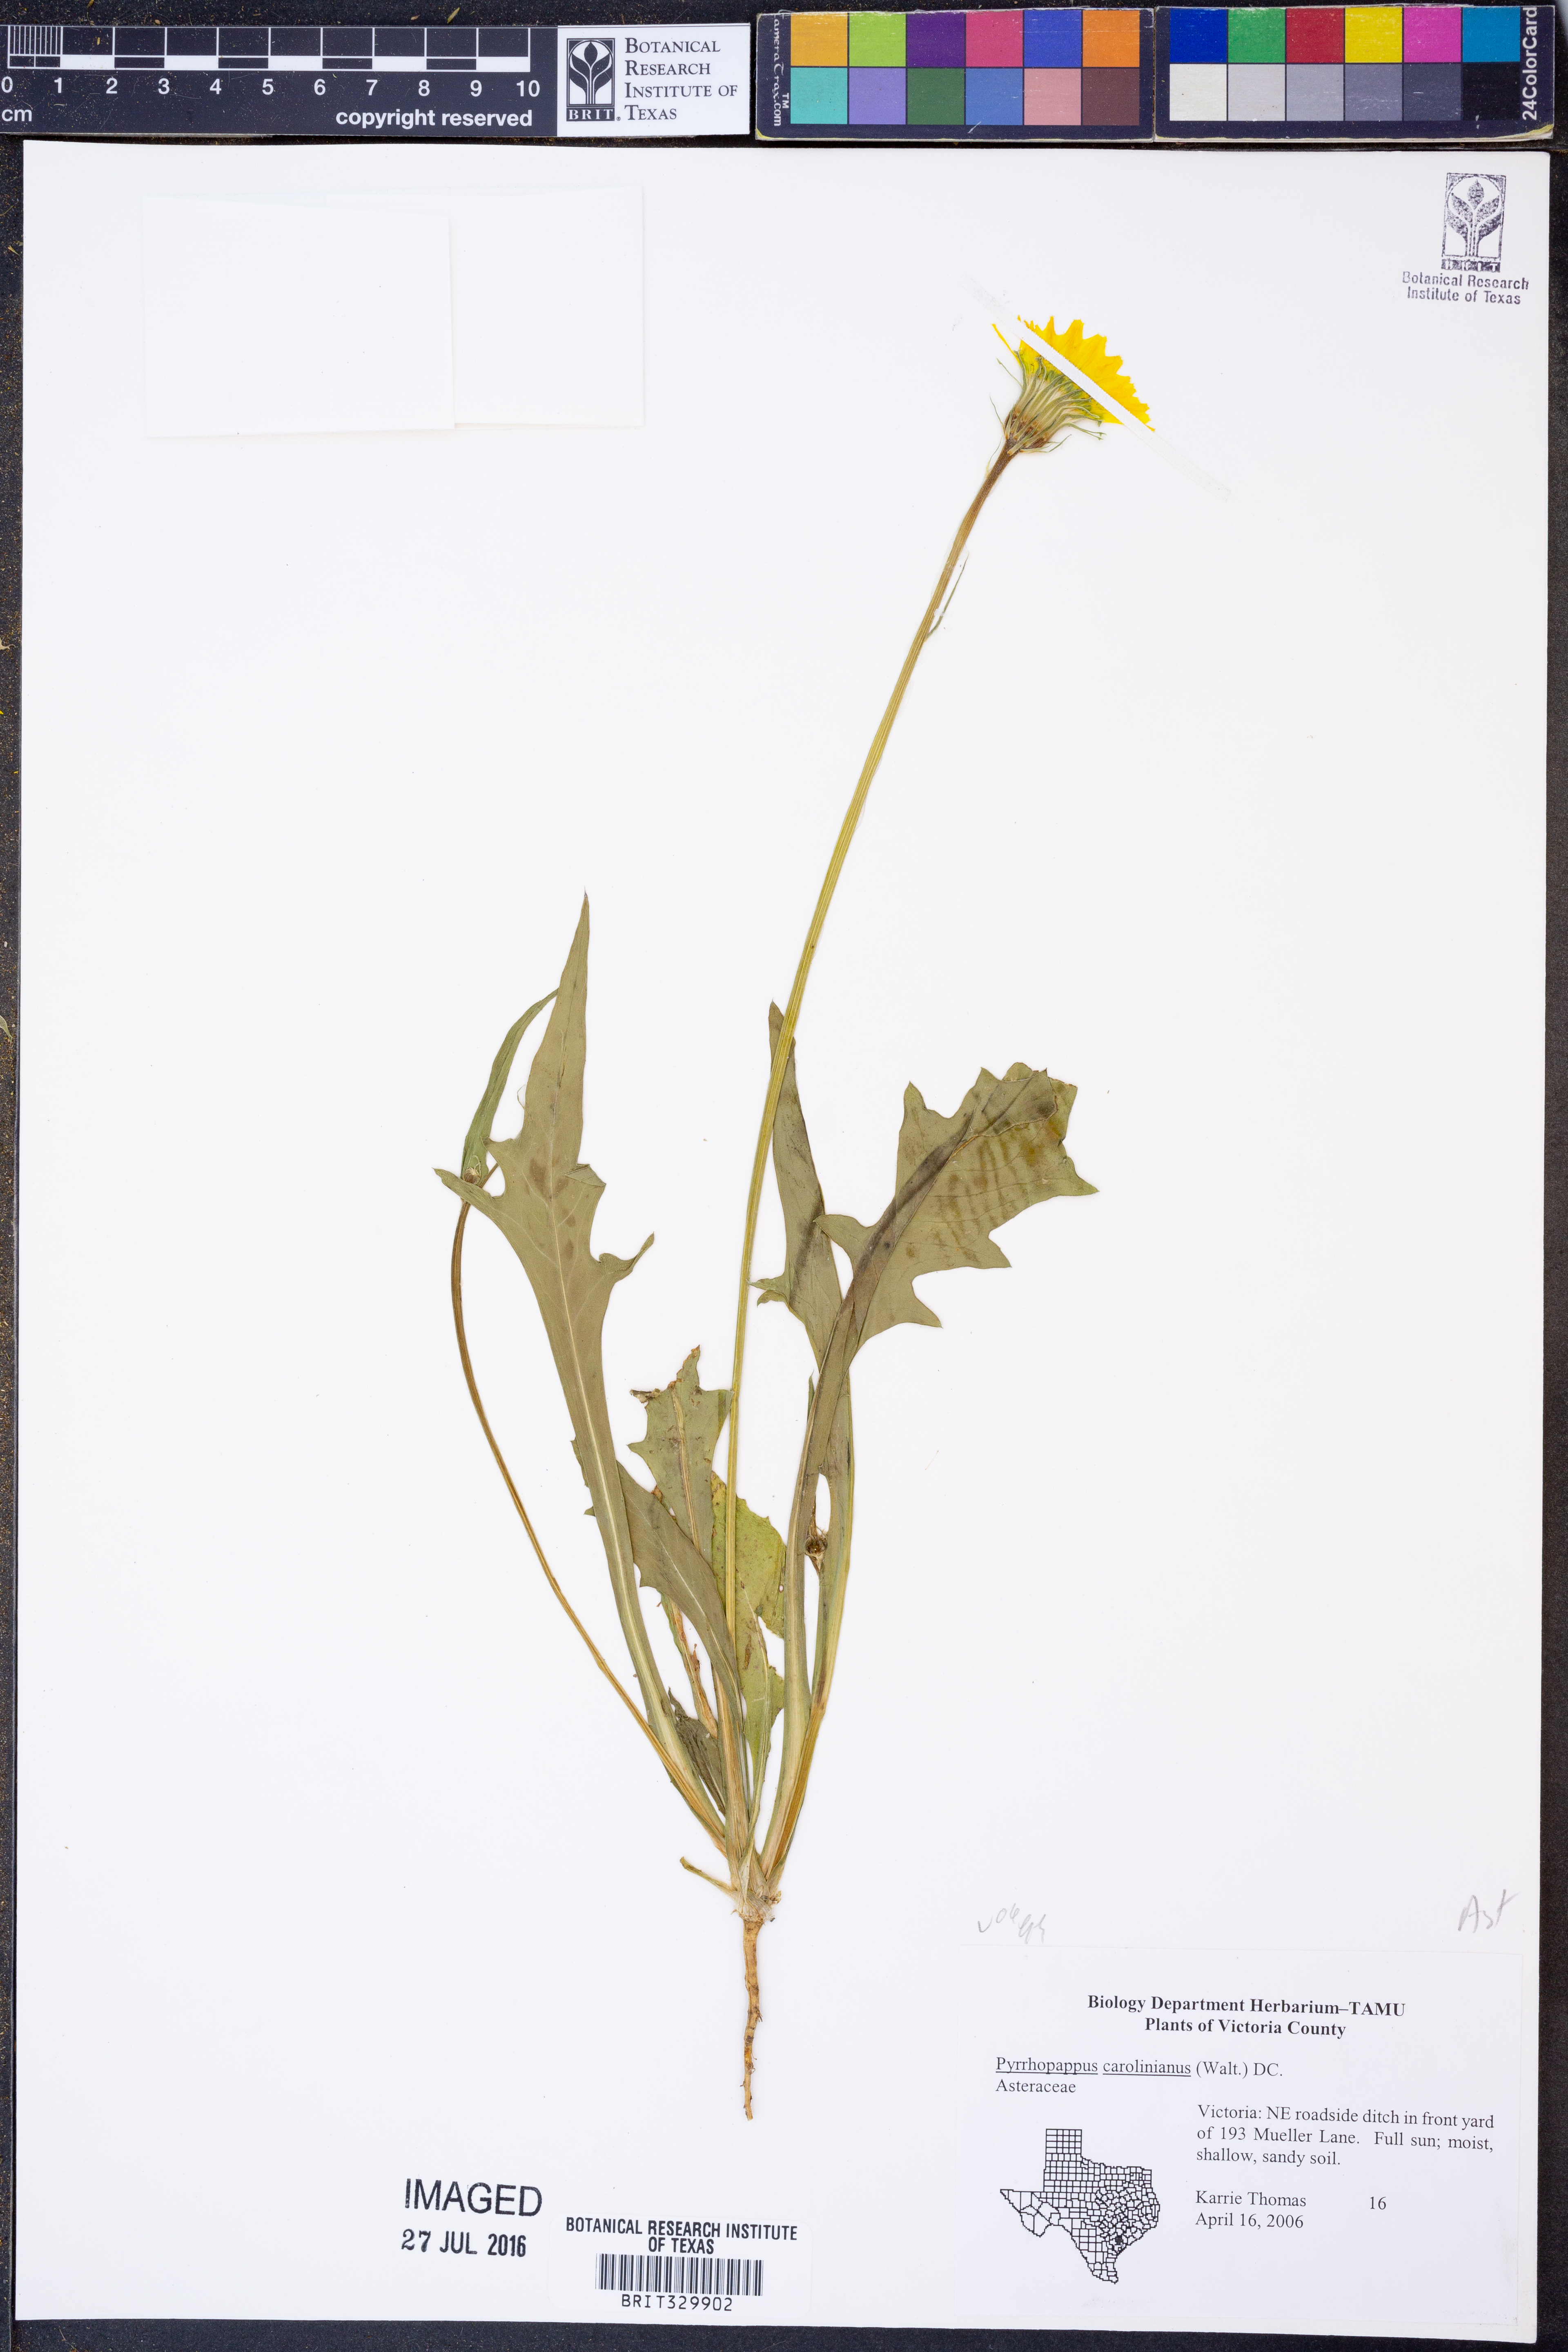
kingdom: Plantae
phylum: Tracheophyta
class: Magnoliopsida
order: Asterales
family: Asteraceae
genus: Pyrrhopappus
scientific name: Pyrrhopappus carolinianus
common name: Carolina desert-chicory
